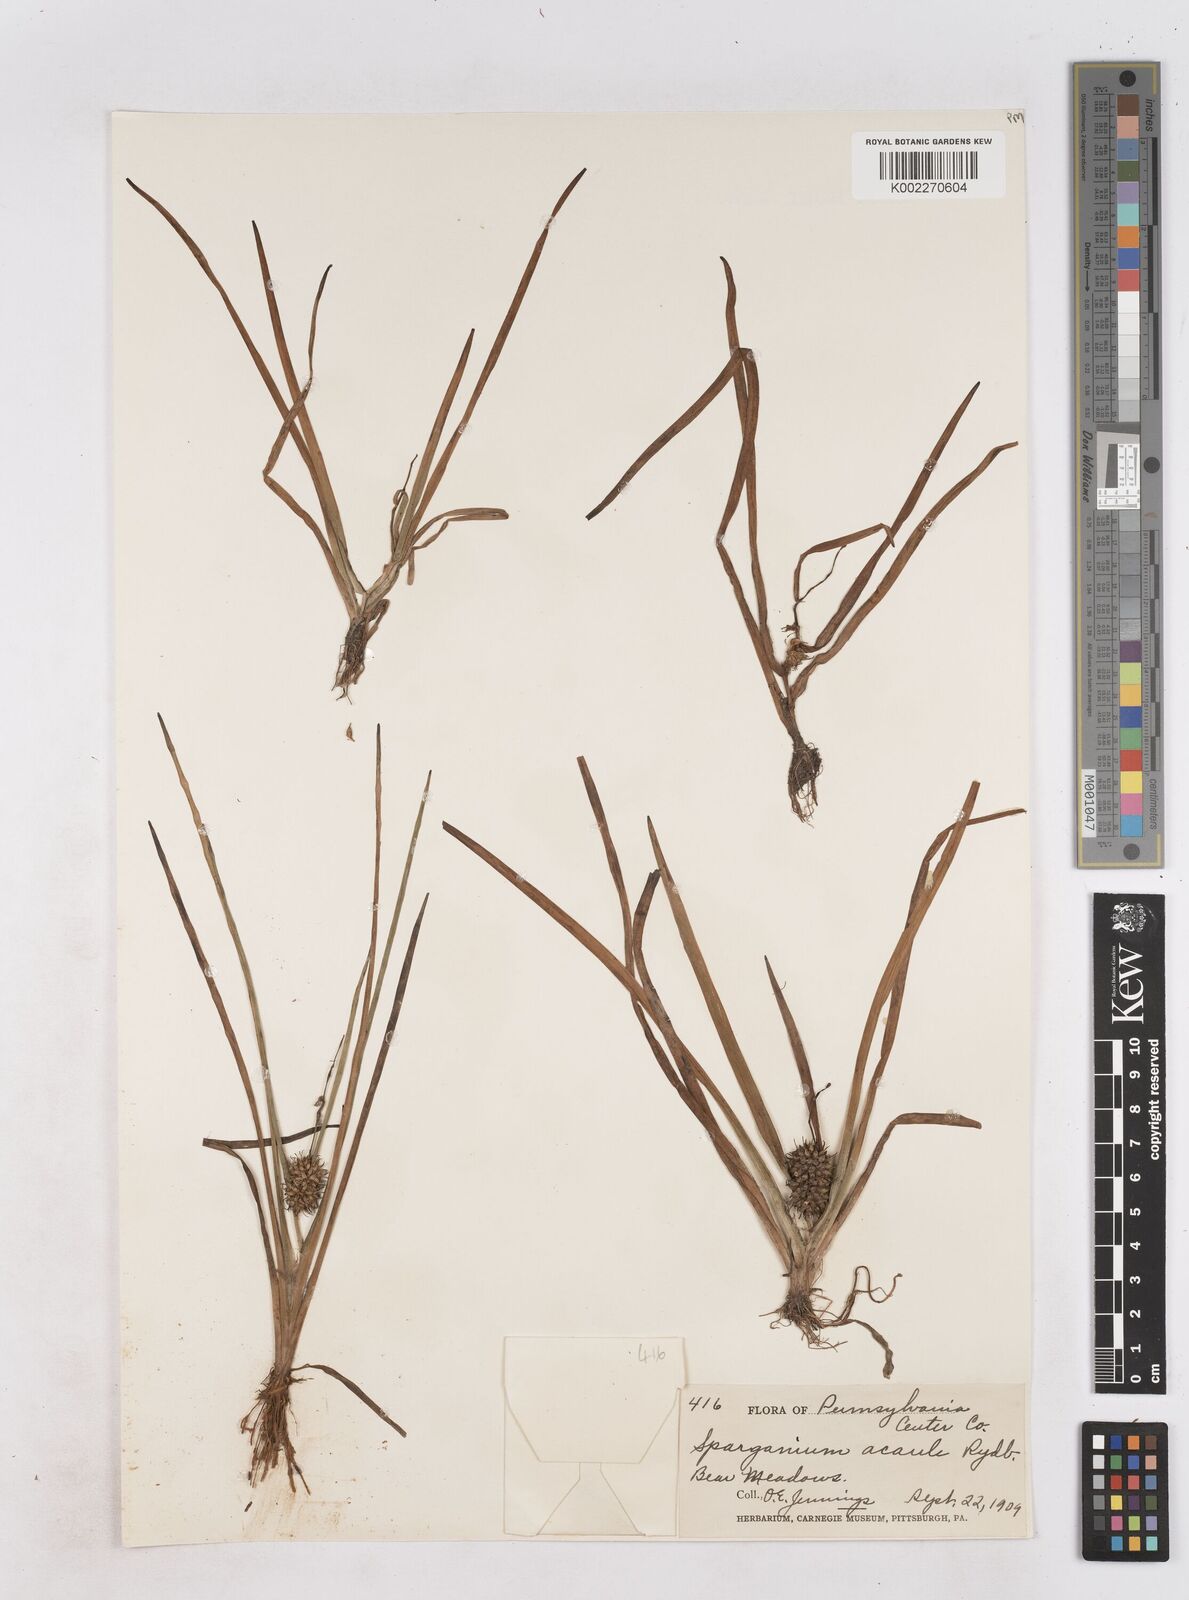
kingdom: Plantae
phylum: Tracheophyta
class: Liliopsida
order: Poales
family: Typhaceae
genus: Sparganium
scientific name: Sparganium emersum
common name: Unbranched bur-reed
